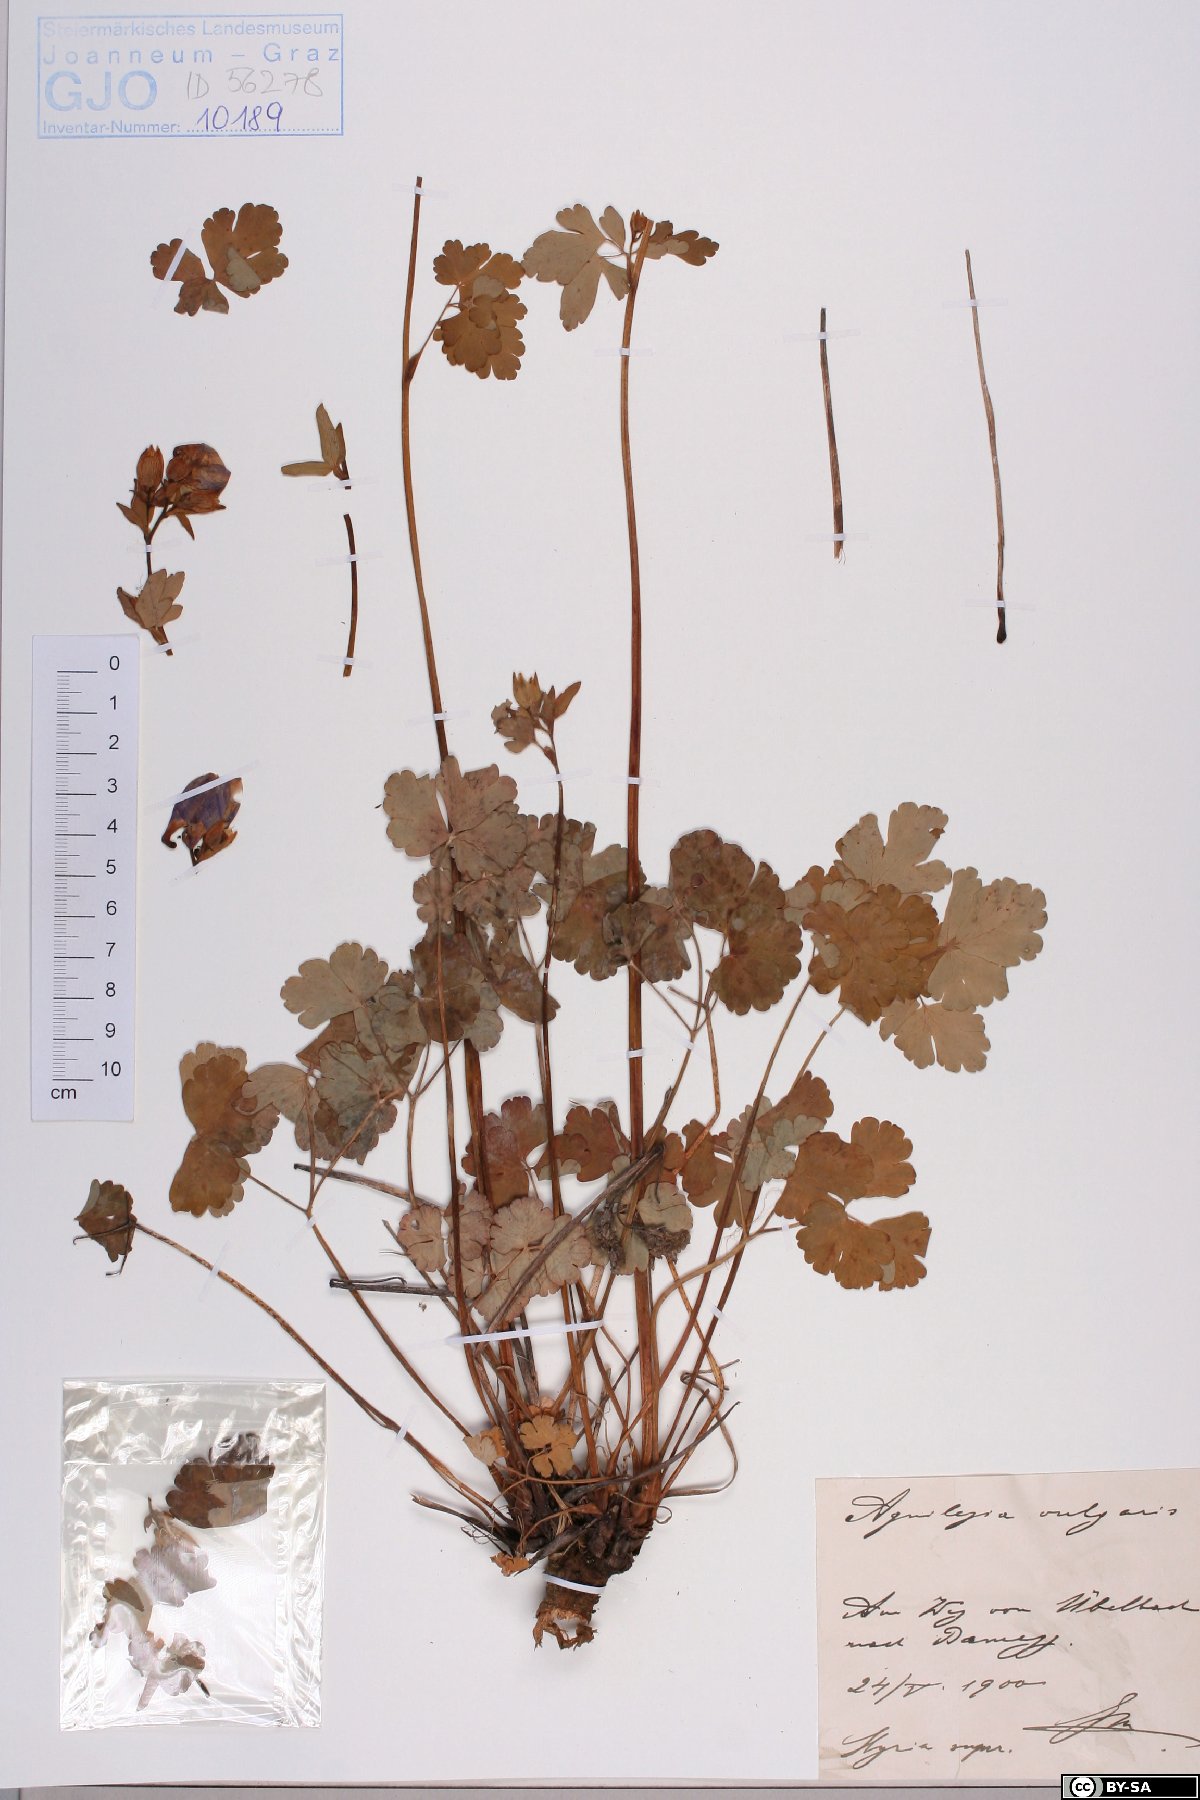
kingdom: Plantae
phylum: Tracheophyta
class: Magnoliopsida
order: Ranunculales
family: Ranunculaceae
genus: Aquilegia
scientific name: Aquilegia vulgaris
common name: Columbine
